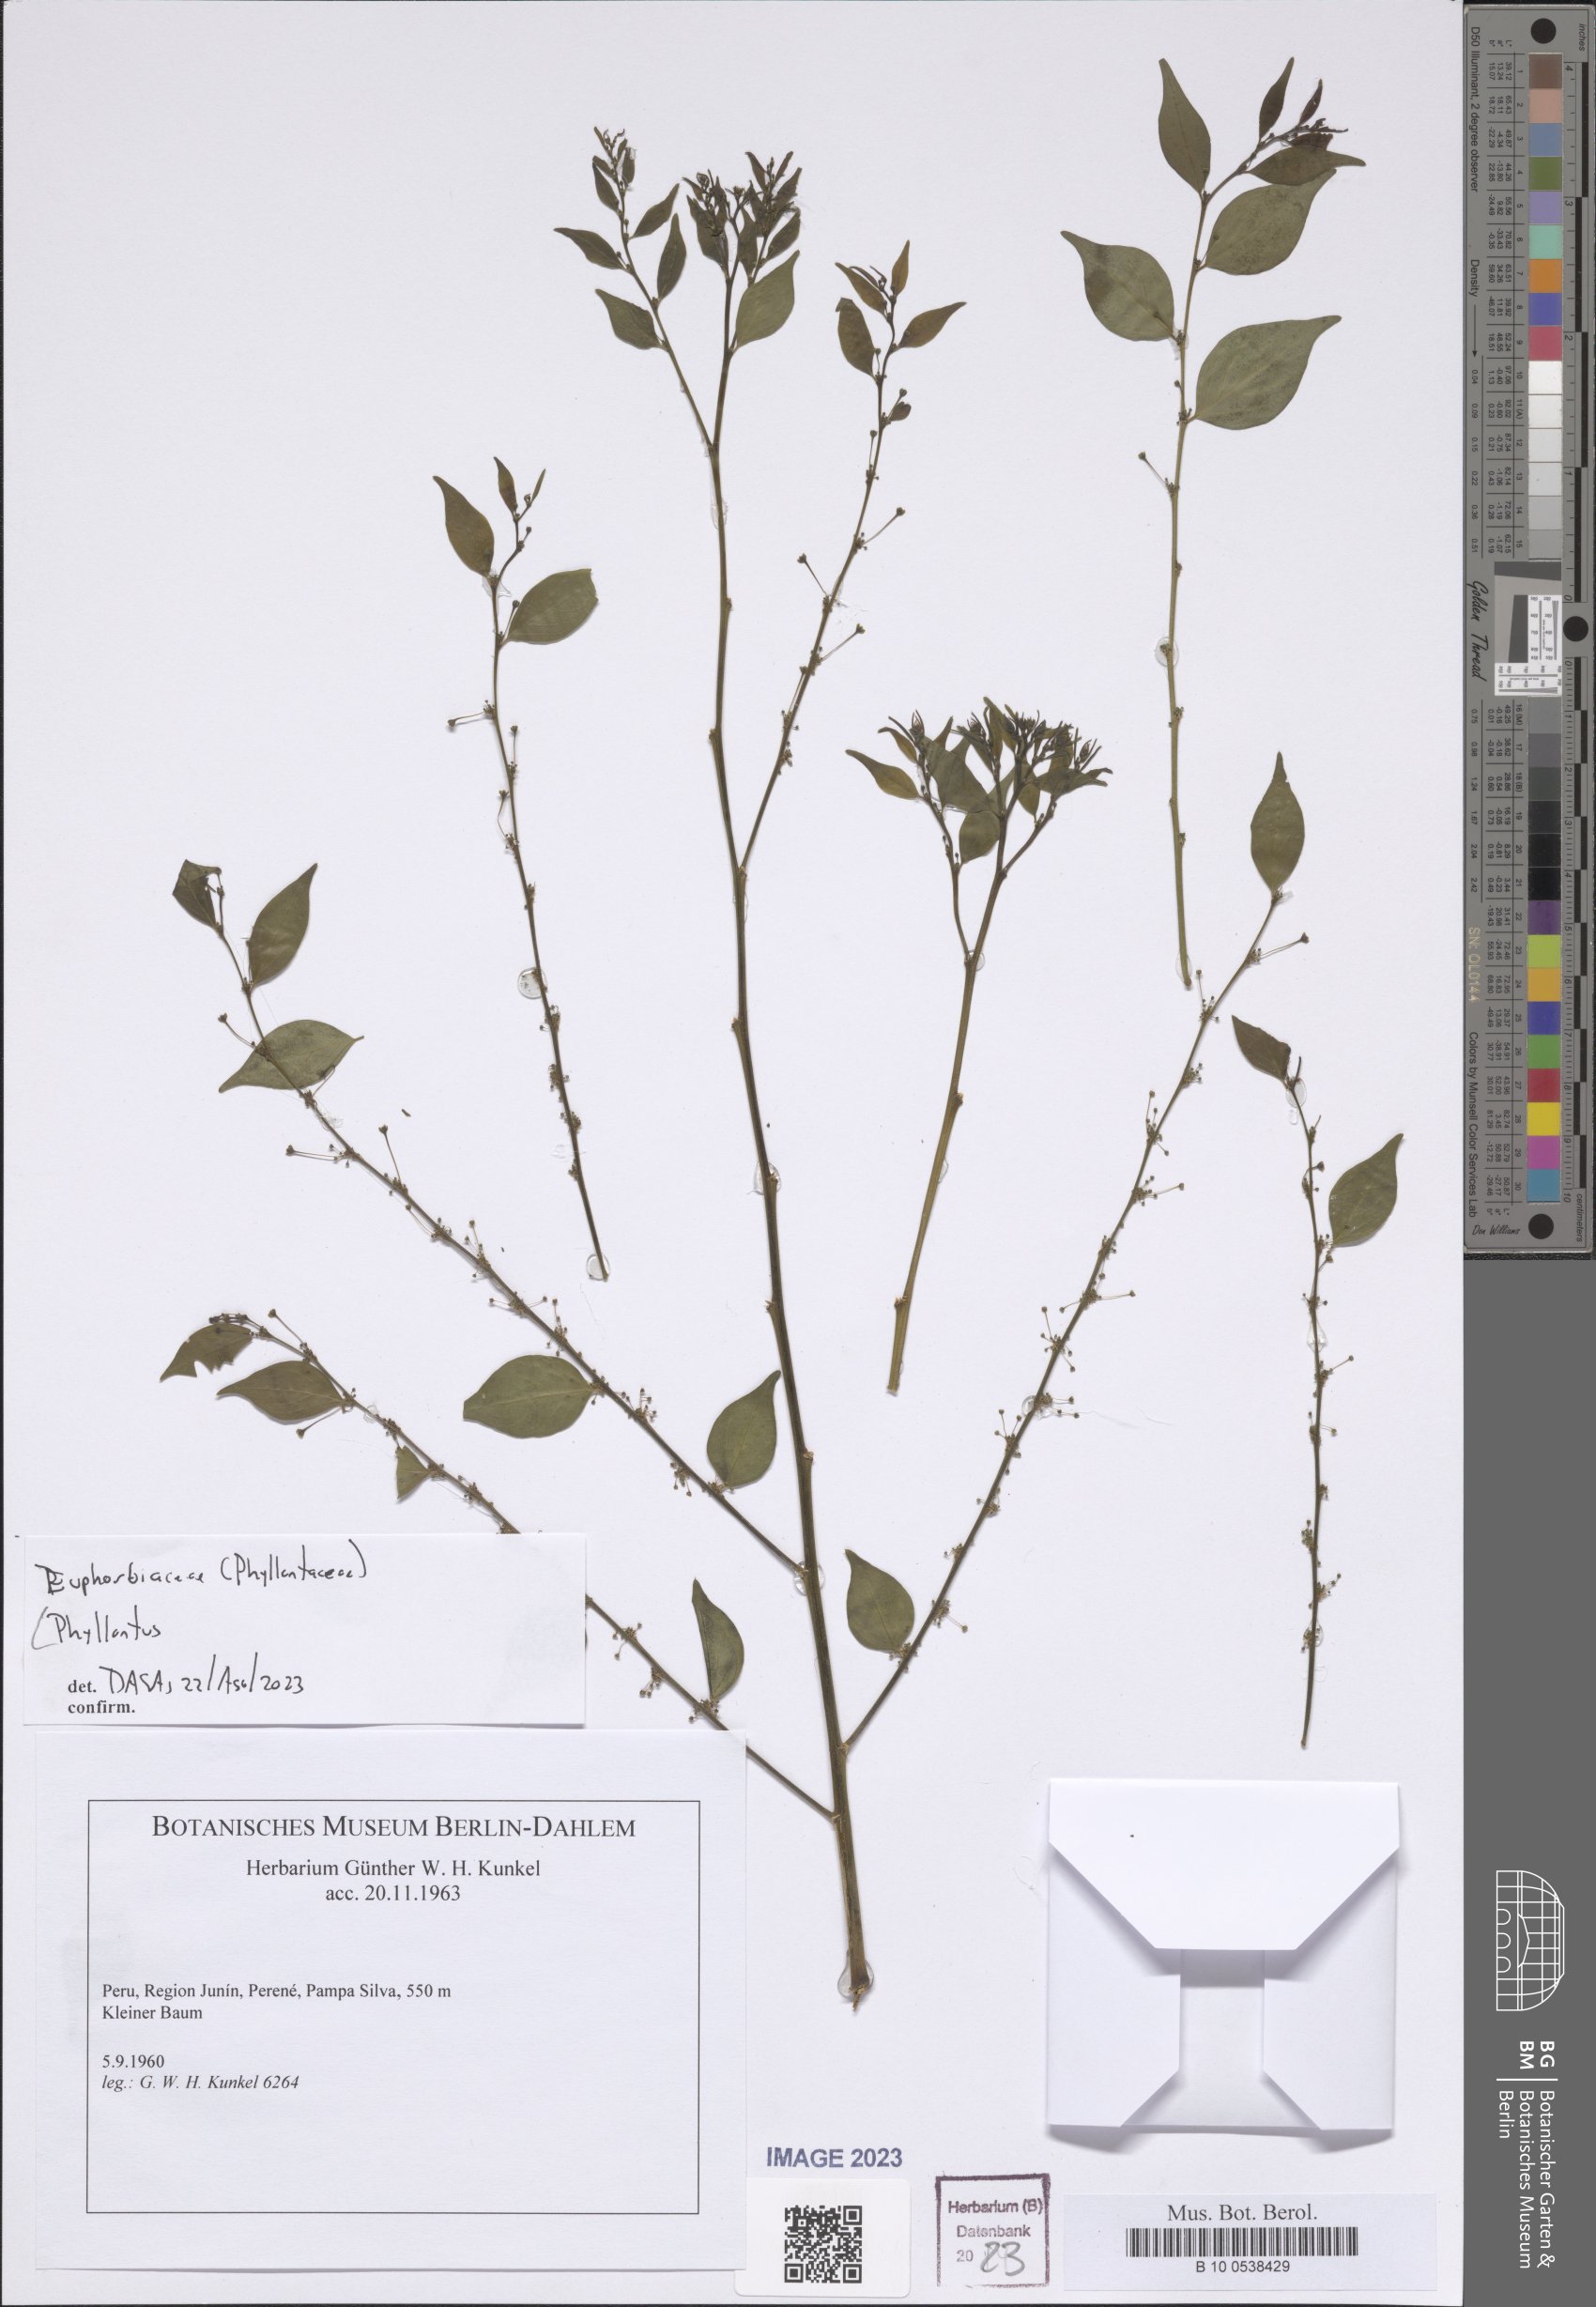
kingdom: Plantae
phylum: Tracheophyta
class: Magnoliopsida
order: Malpighiales
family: Phyllanthaceae
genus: Phyllanthus
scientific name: Phyllanthus
